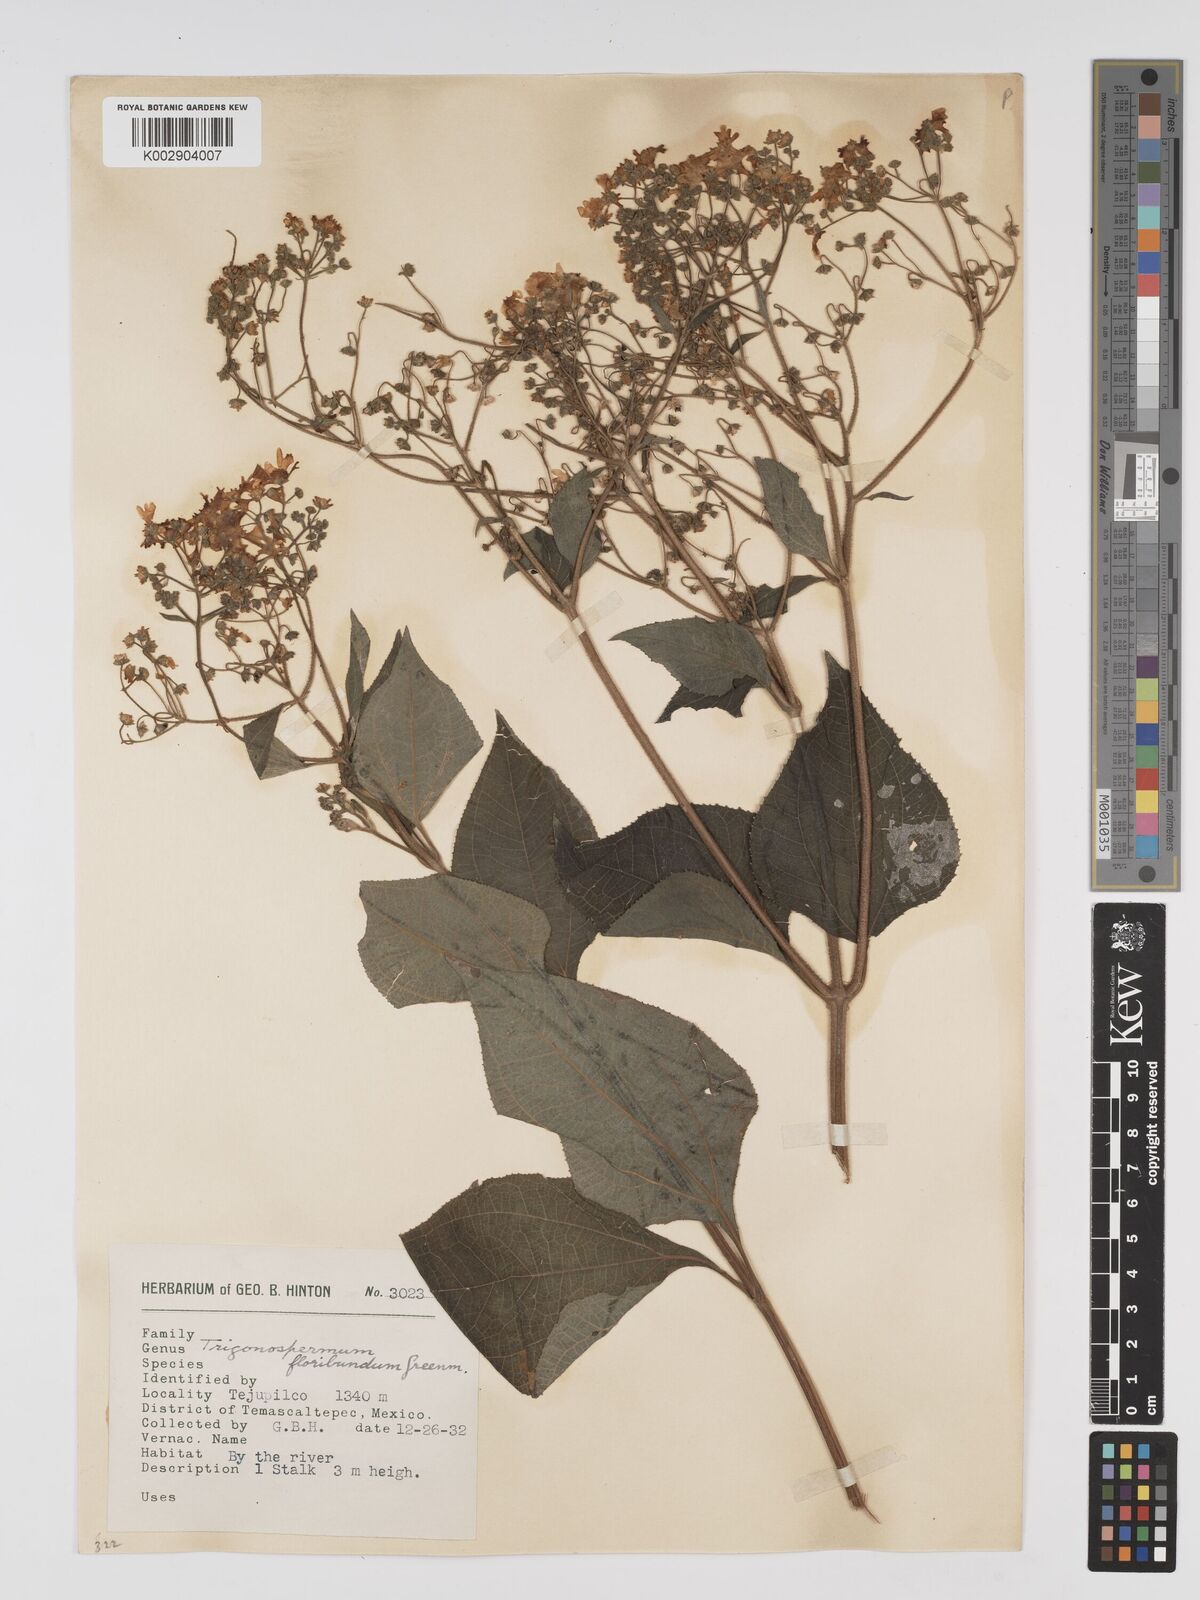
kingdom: Plantae
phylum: Tracheophyta
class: Magnoliopsida
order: Asterales
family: Asteraceae
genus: Trigonospermum
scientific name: Trigonospermum melampodioides
